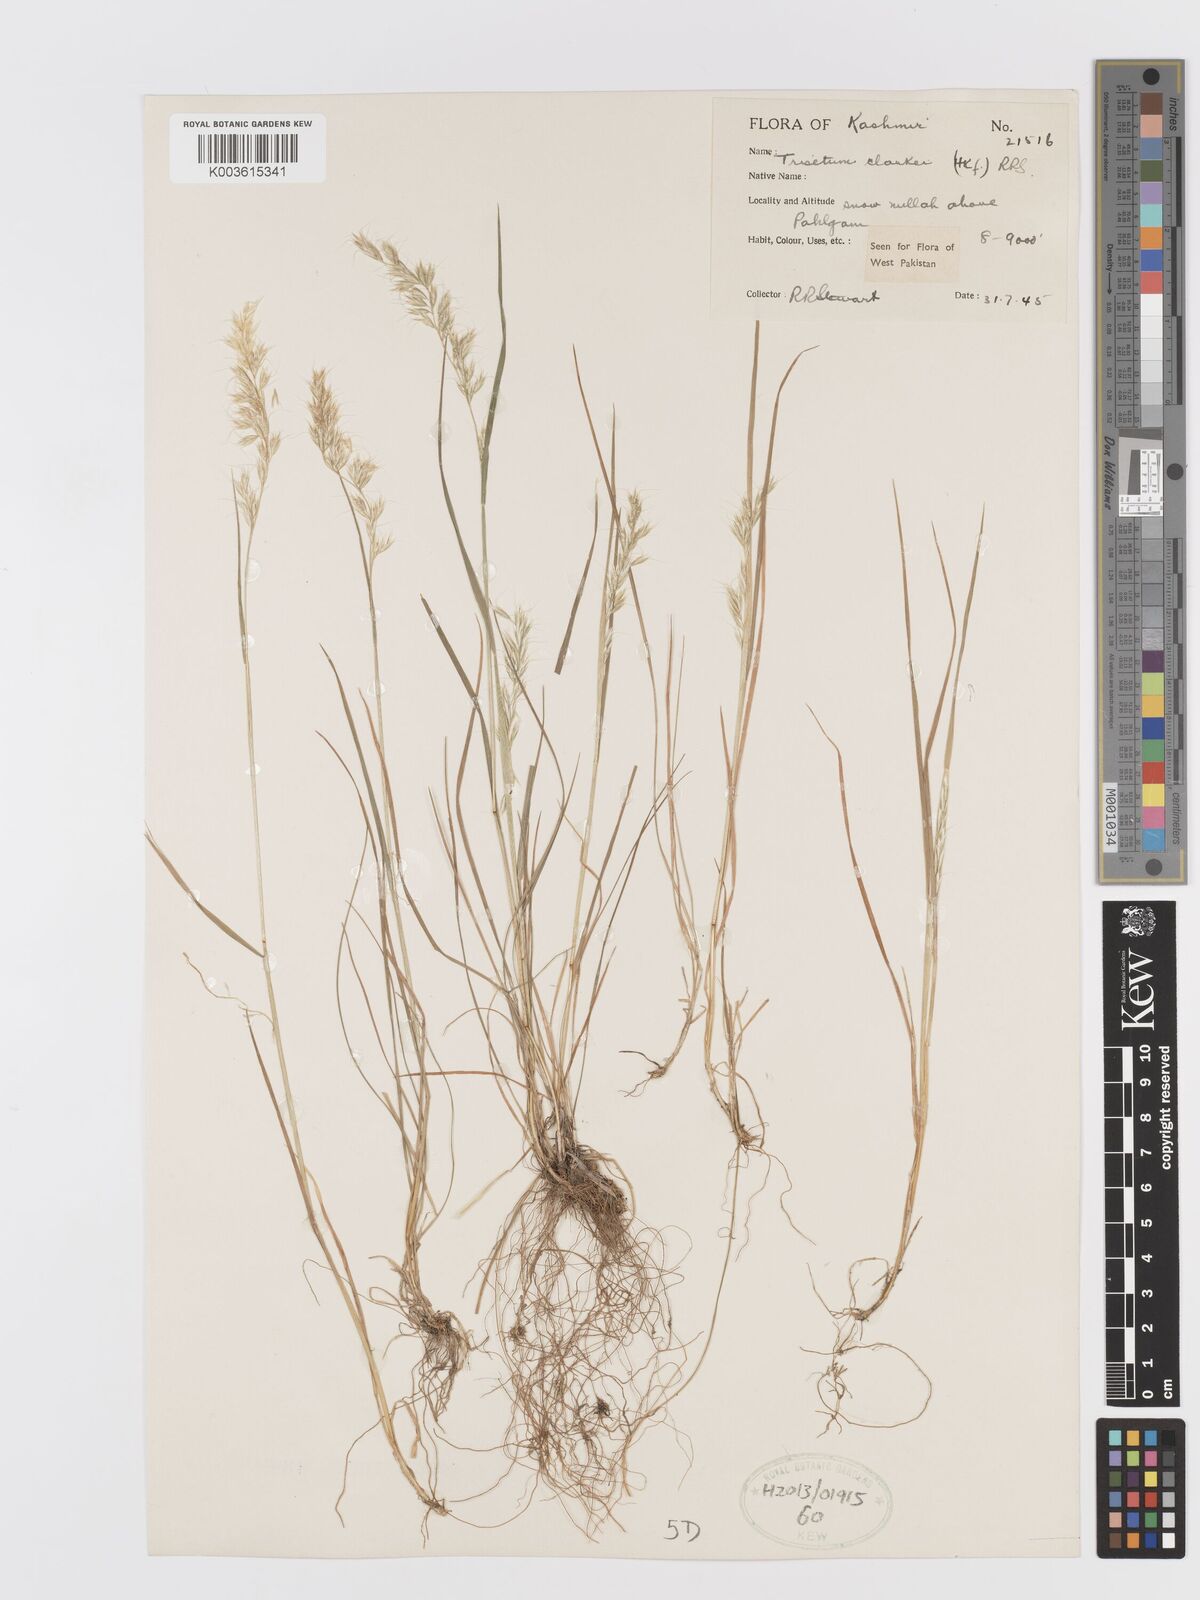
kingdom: Plantae
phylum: Tracheophyta
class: Liliopsida
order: Poales
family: Poaceae
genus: Trisetum
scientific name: Trisetum clarkei
